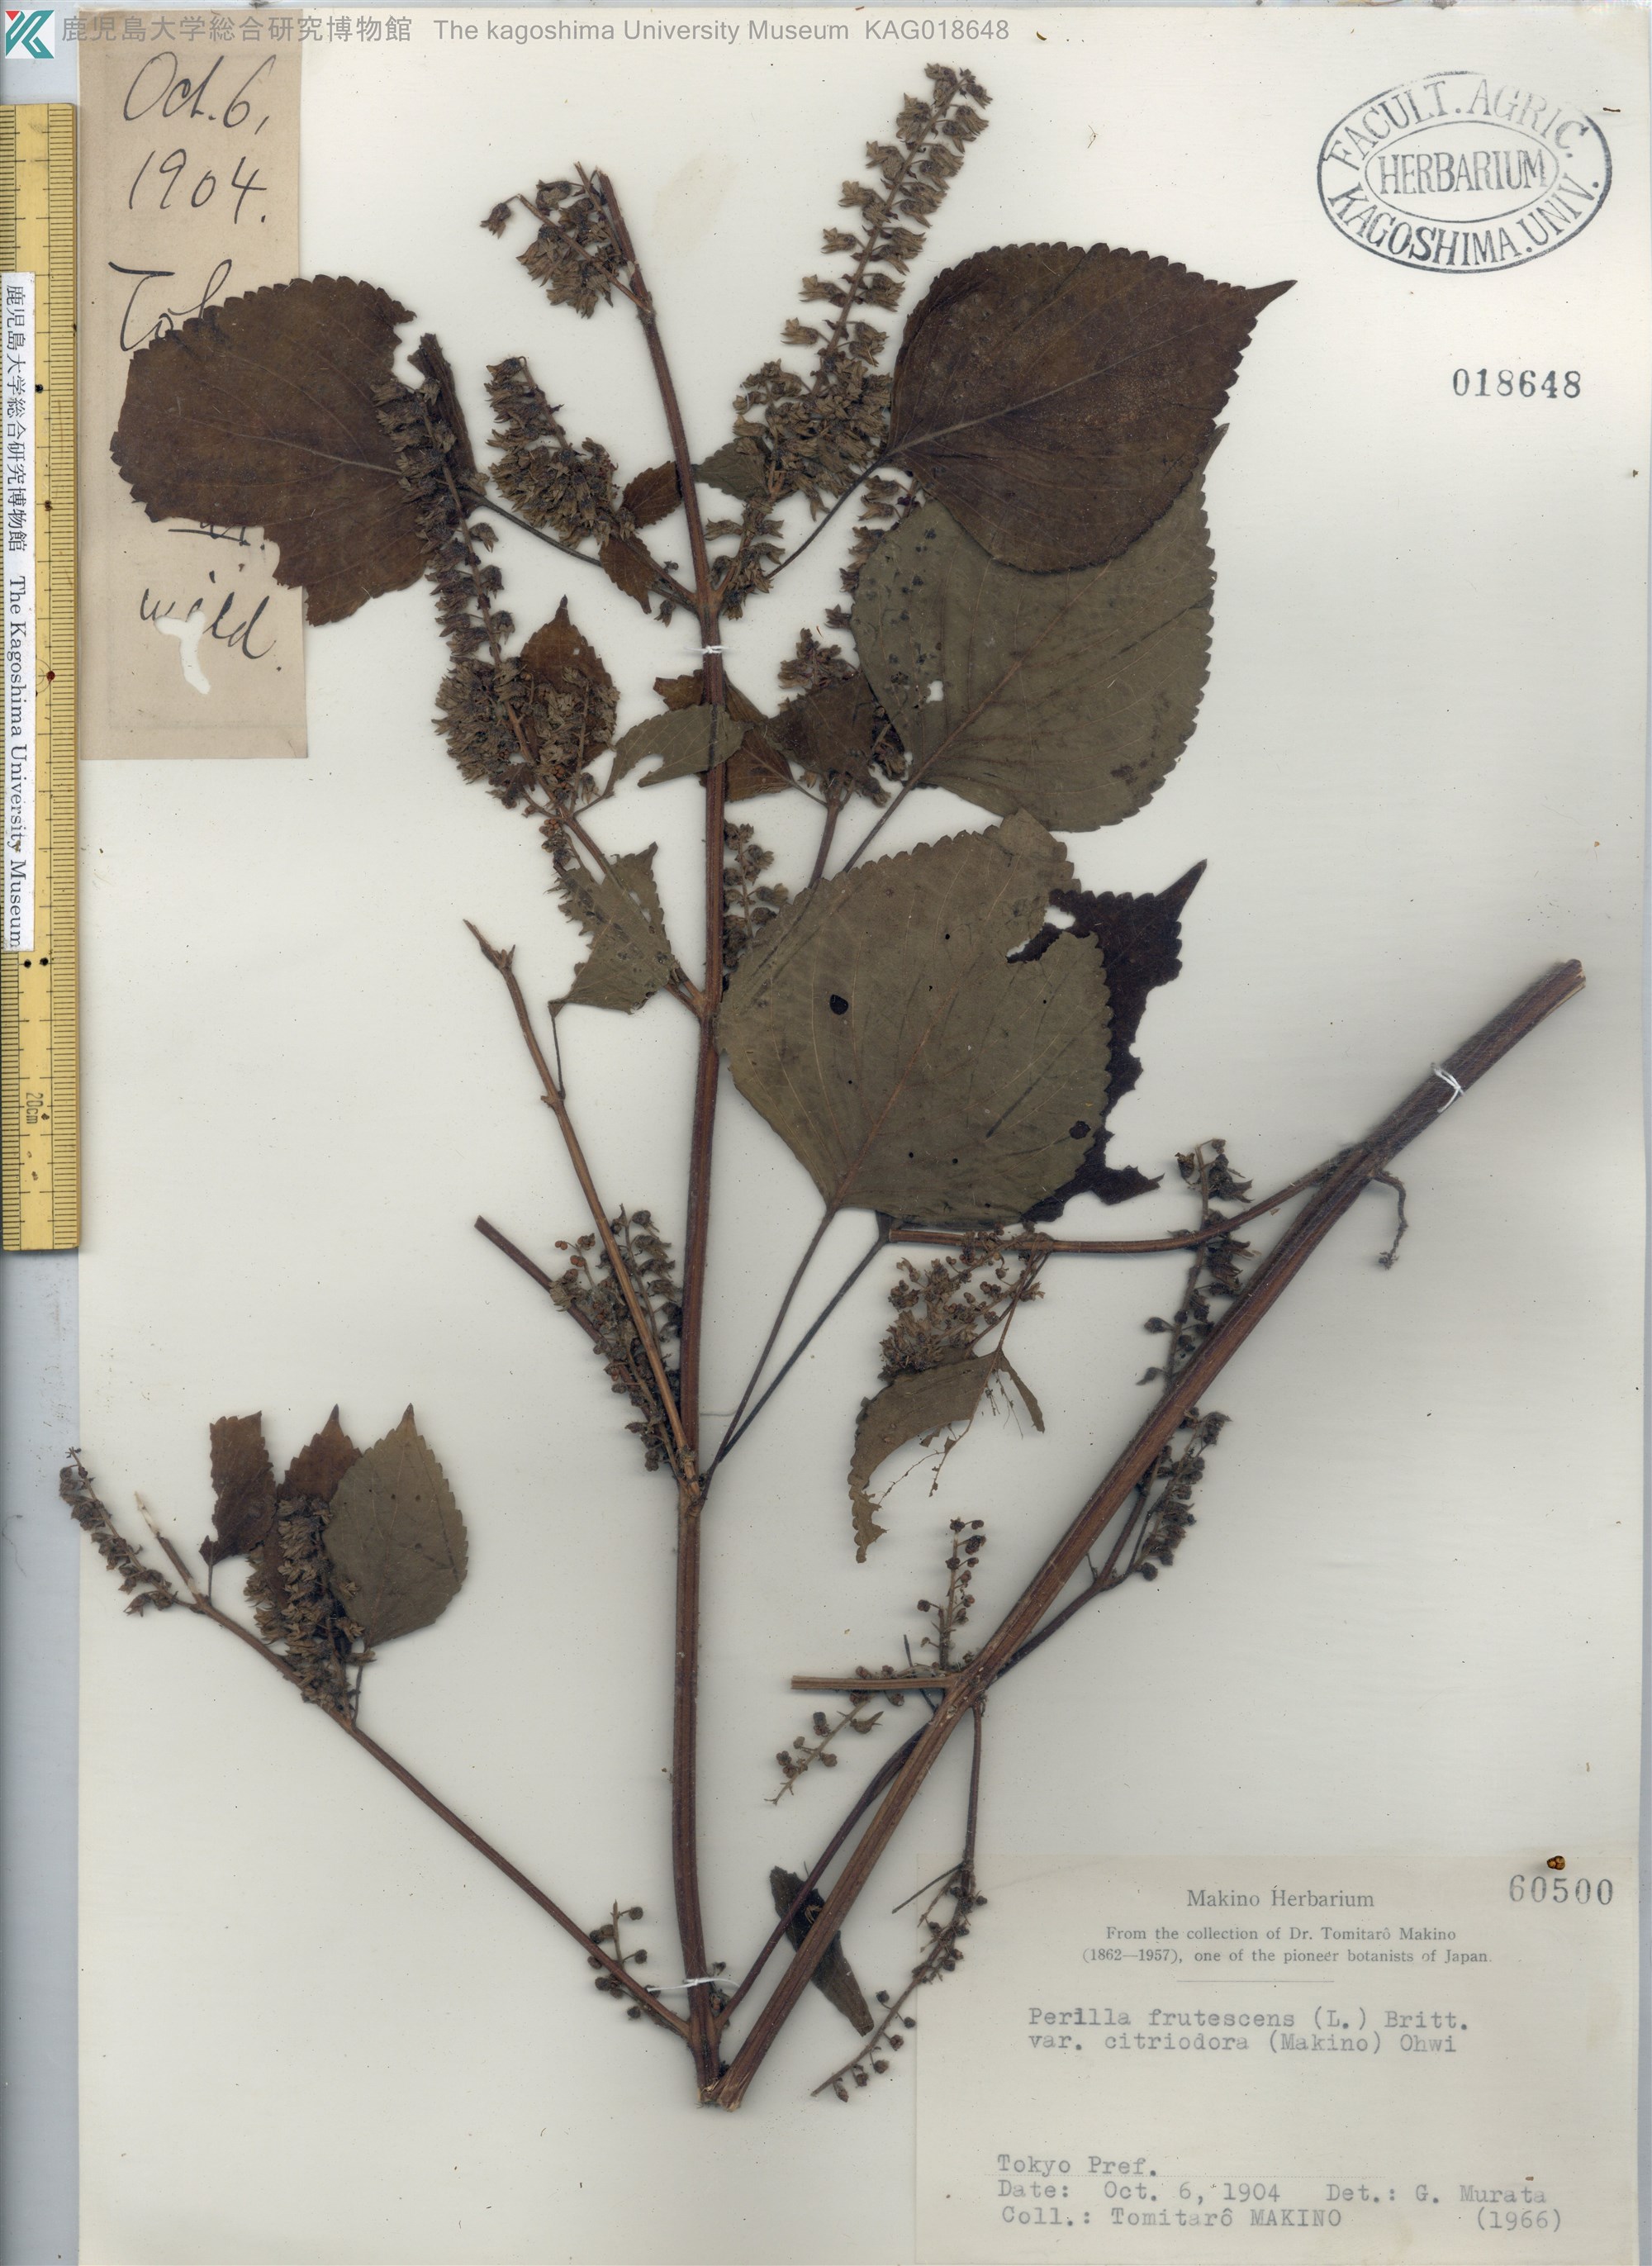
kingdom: Plantae
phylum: Tracheophyta
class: Magnoliopsida
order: Lamiales
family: Lamiaceae
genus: Perilla
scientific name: Perilla frutescens
